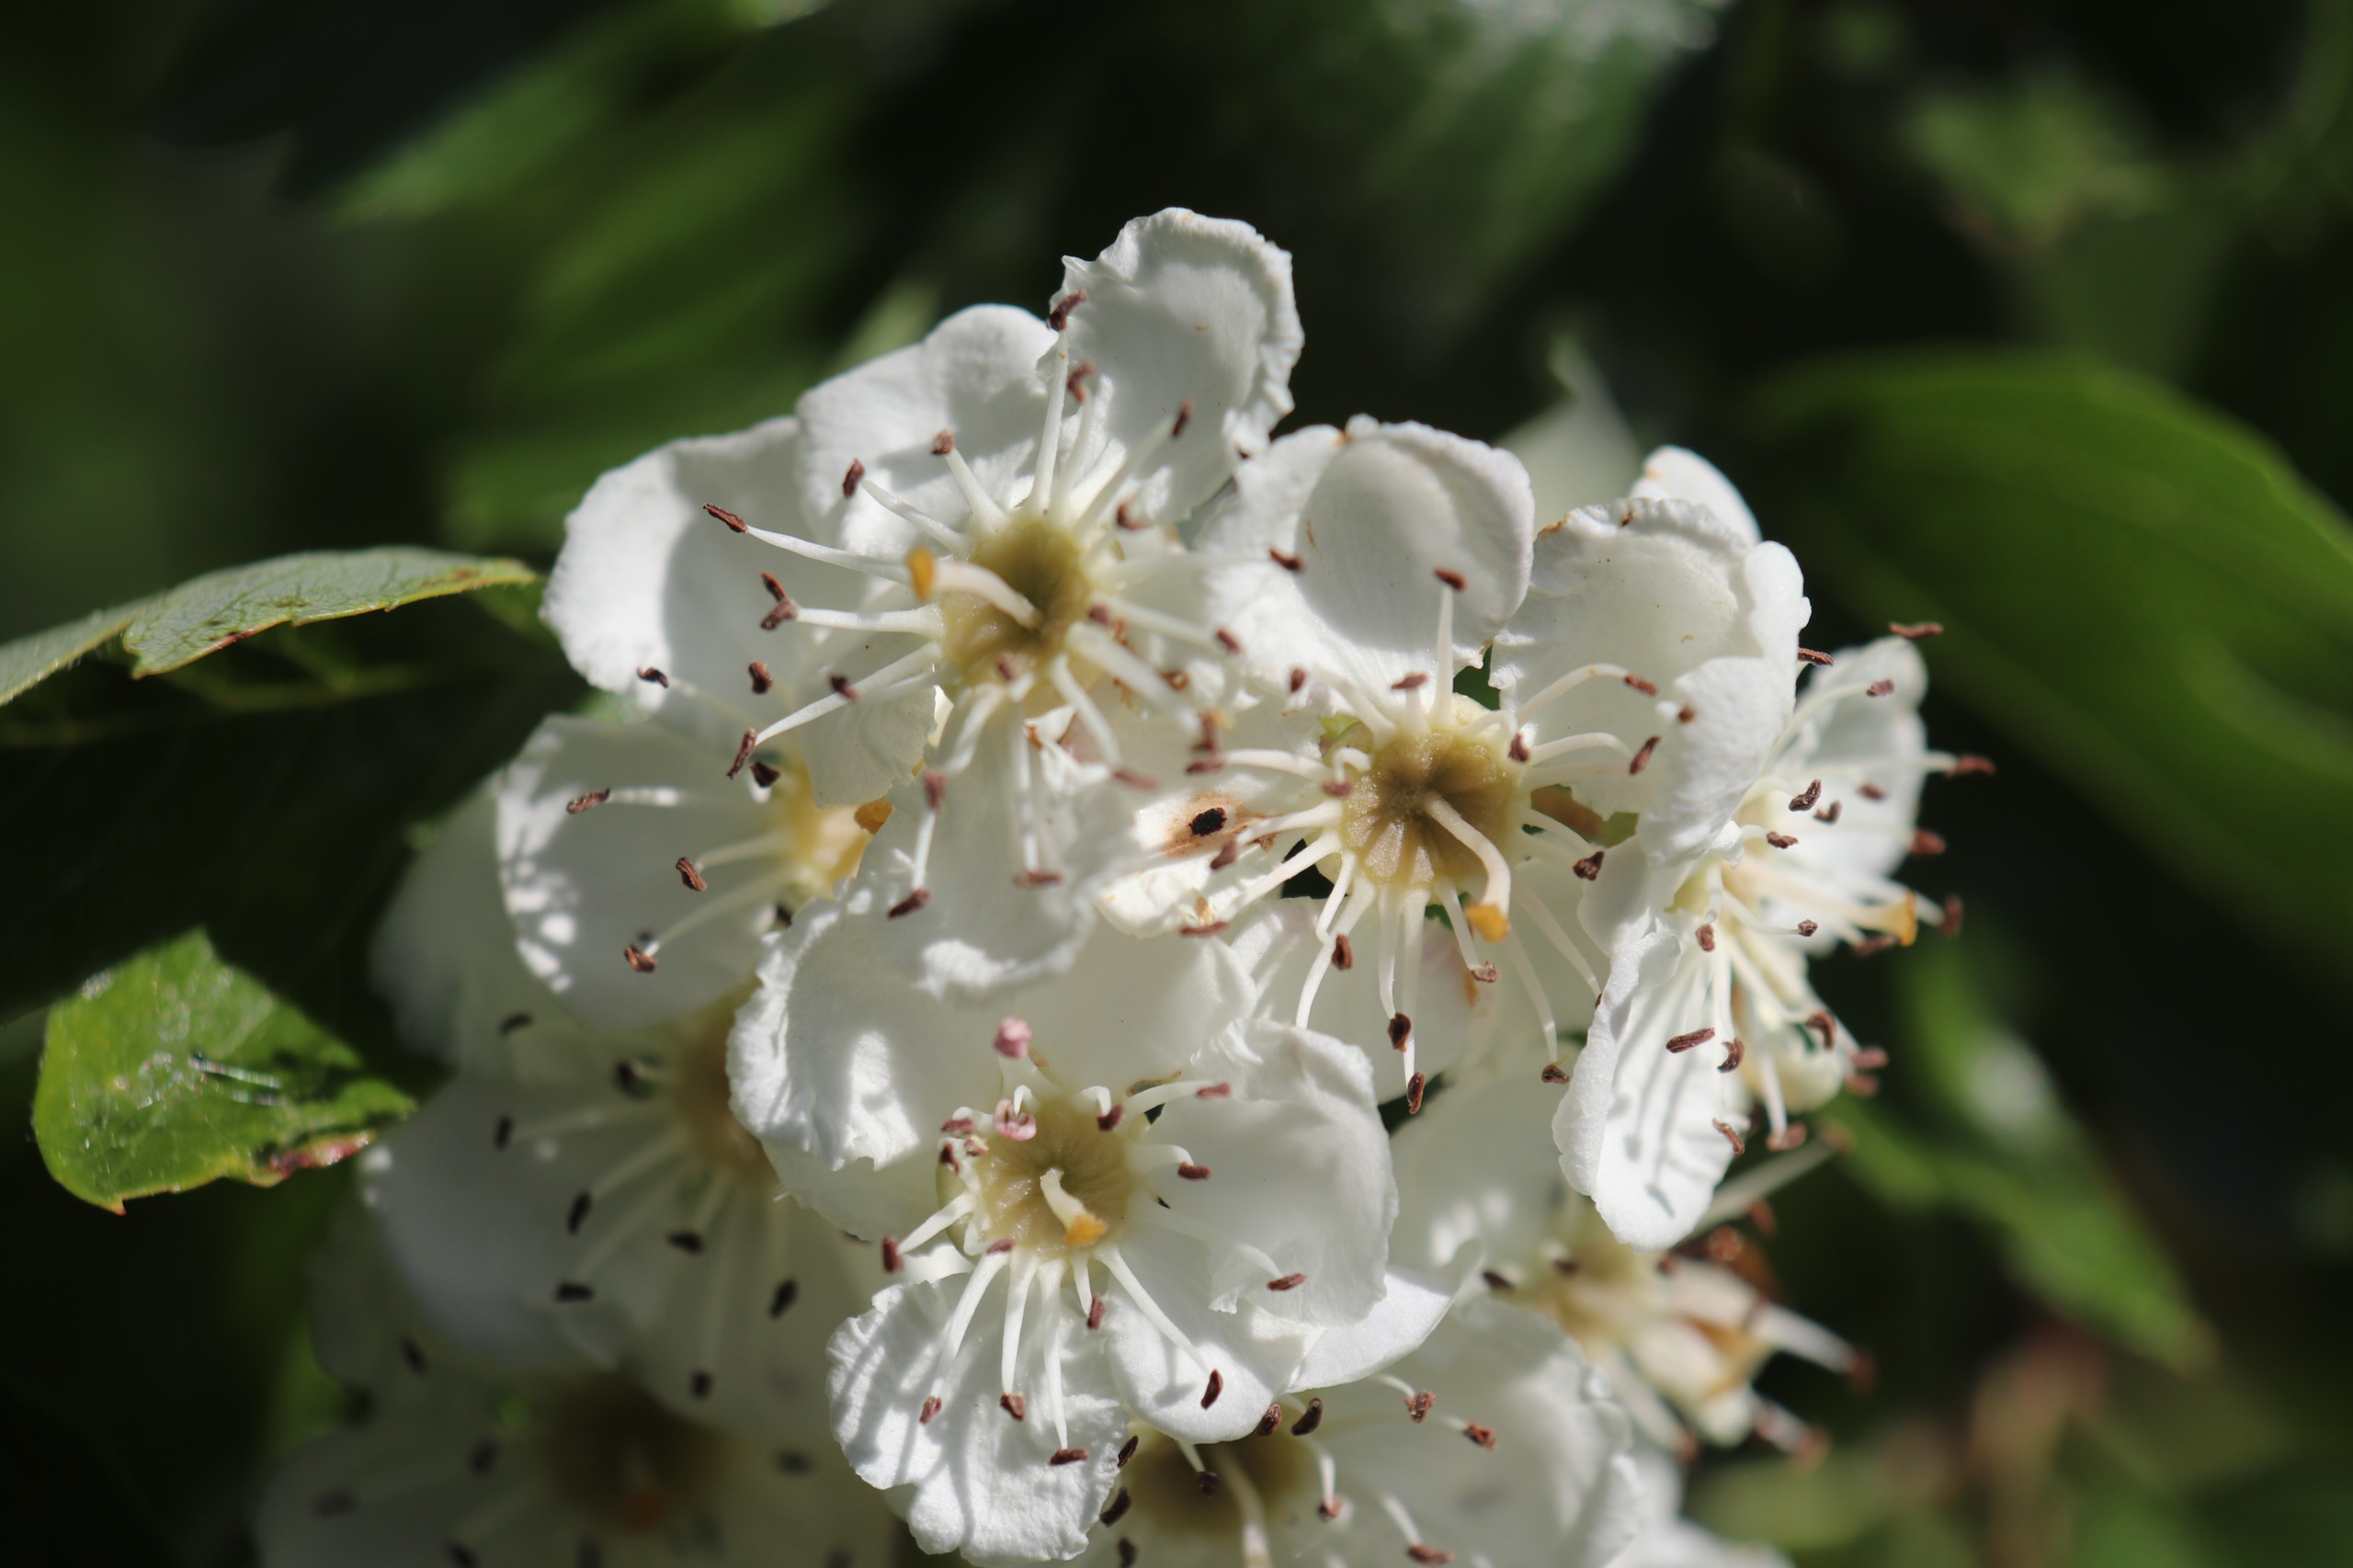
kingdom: Plantae
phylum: Tracheophyta
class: Magnoliopsida
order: Rosales
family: Rosaceae
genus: Crataegus
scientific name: Crataegus monogyna
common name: Engriflet hvidtjørn
